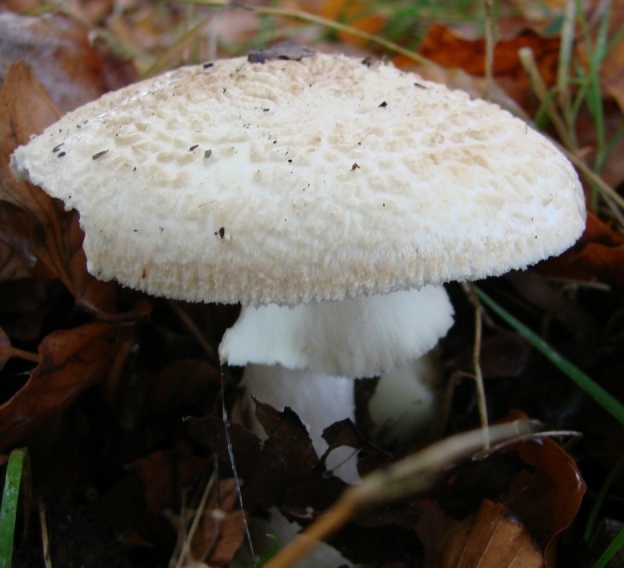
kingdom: Fungi
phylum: Basidiomycota
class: Agaricomycetes
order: Agaricales
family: Amanitaceae
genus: Amanita
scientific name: Amanita citrina
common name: False death-cap
